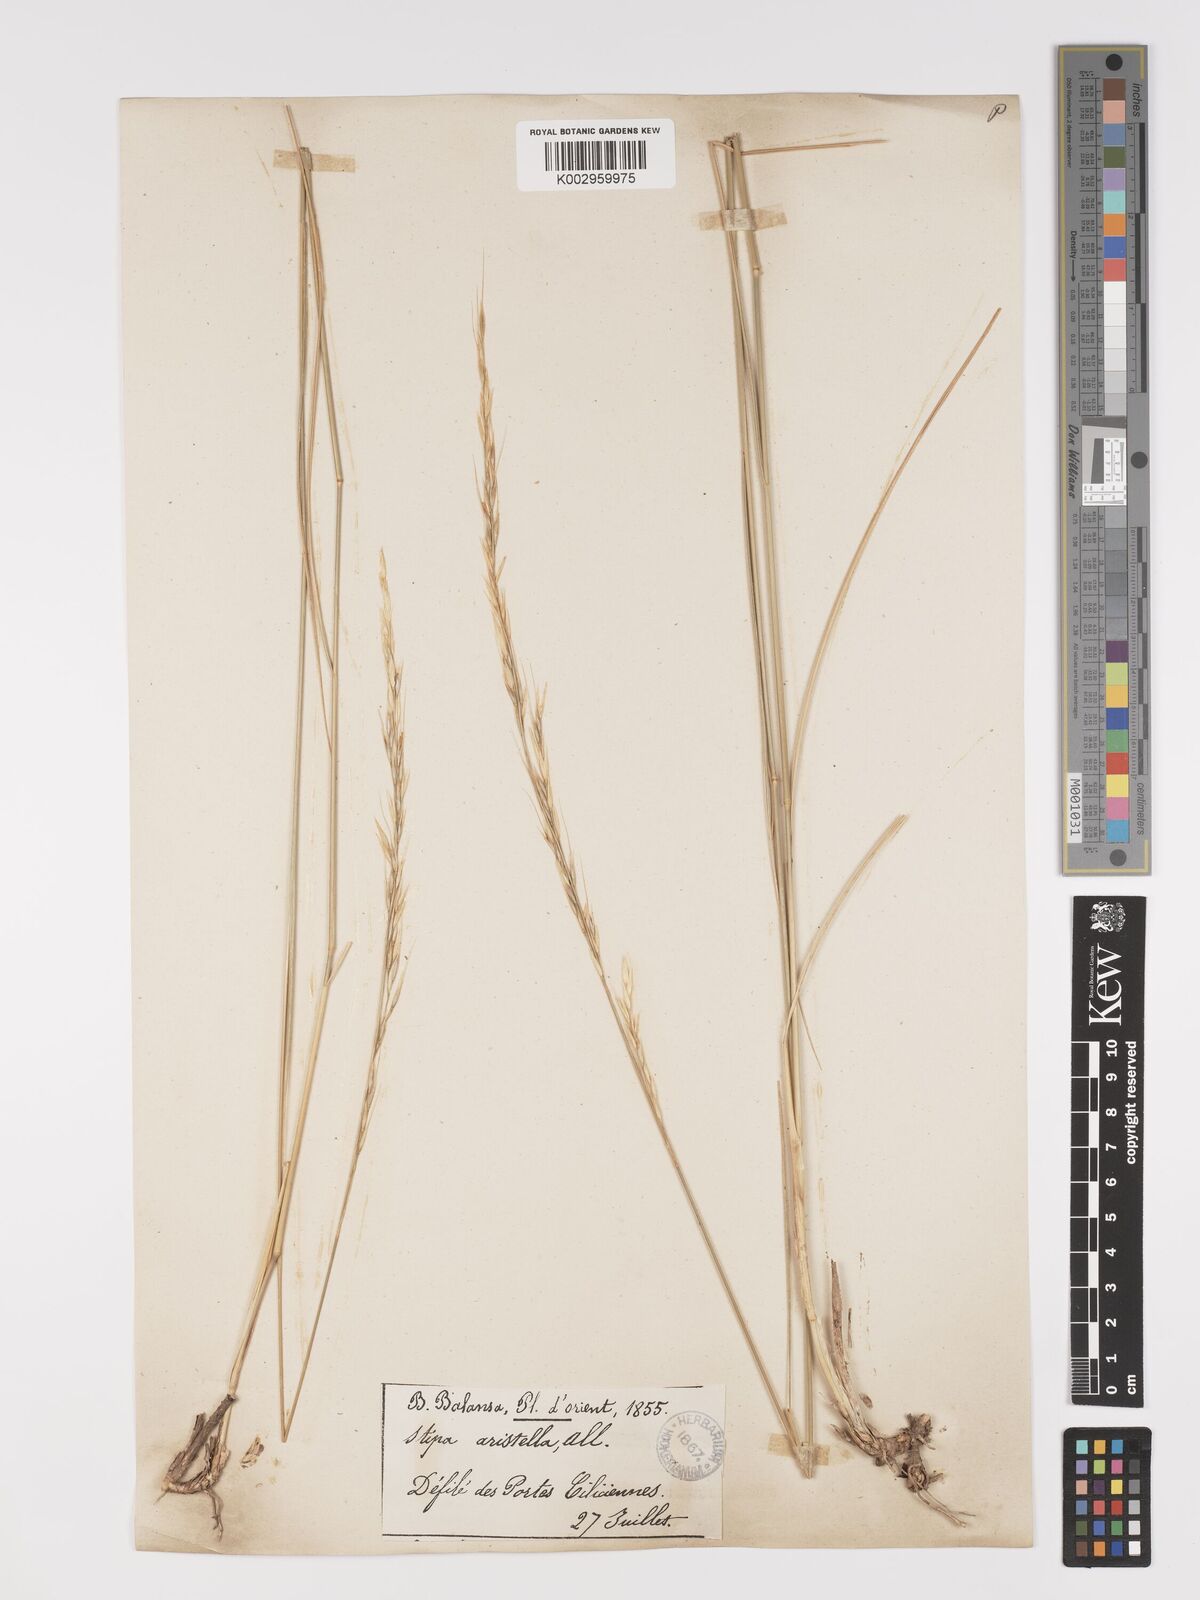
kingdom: Plantae
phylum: Tracheophyta
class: Liliopsida
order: Poales
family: Poaceae
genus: Achnatherum
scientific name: Achnatherum bromoides
